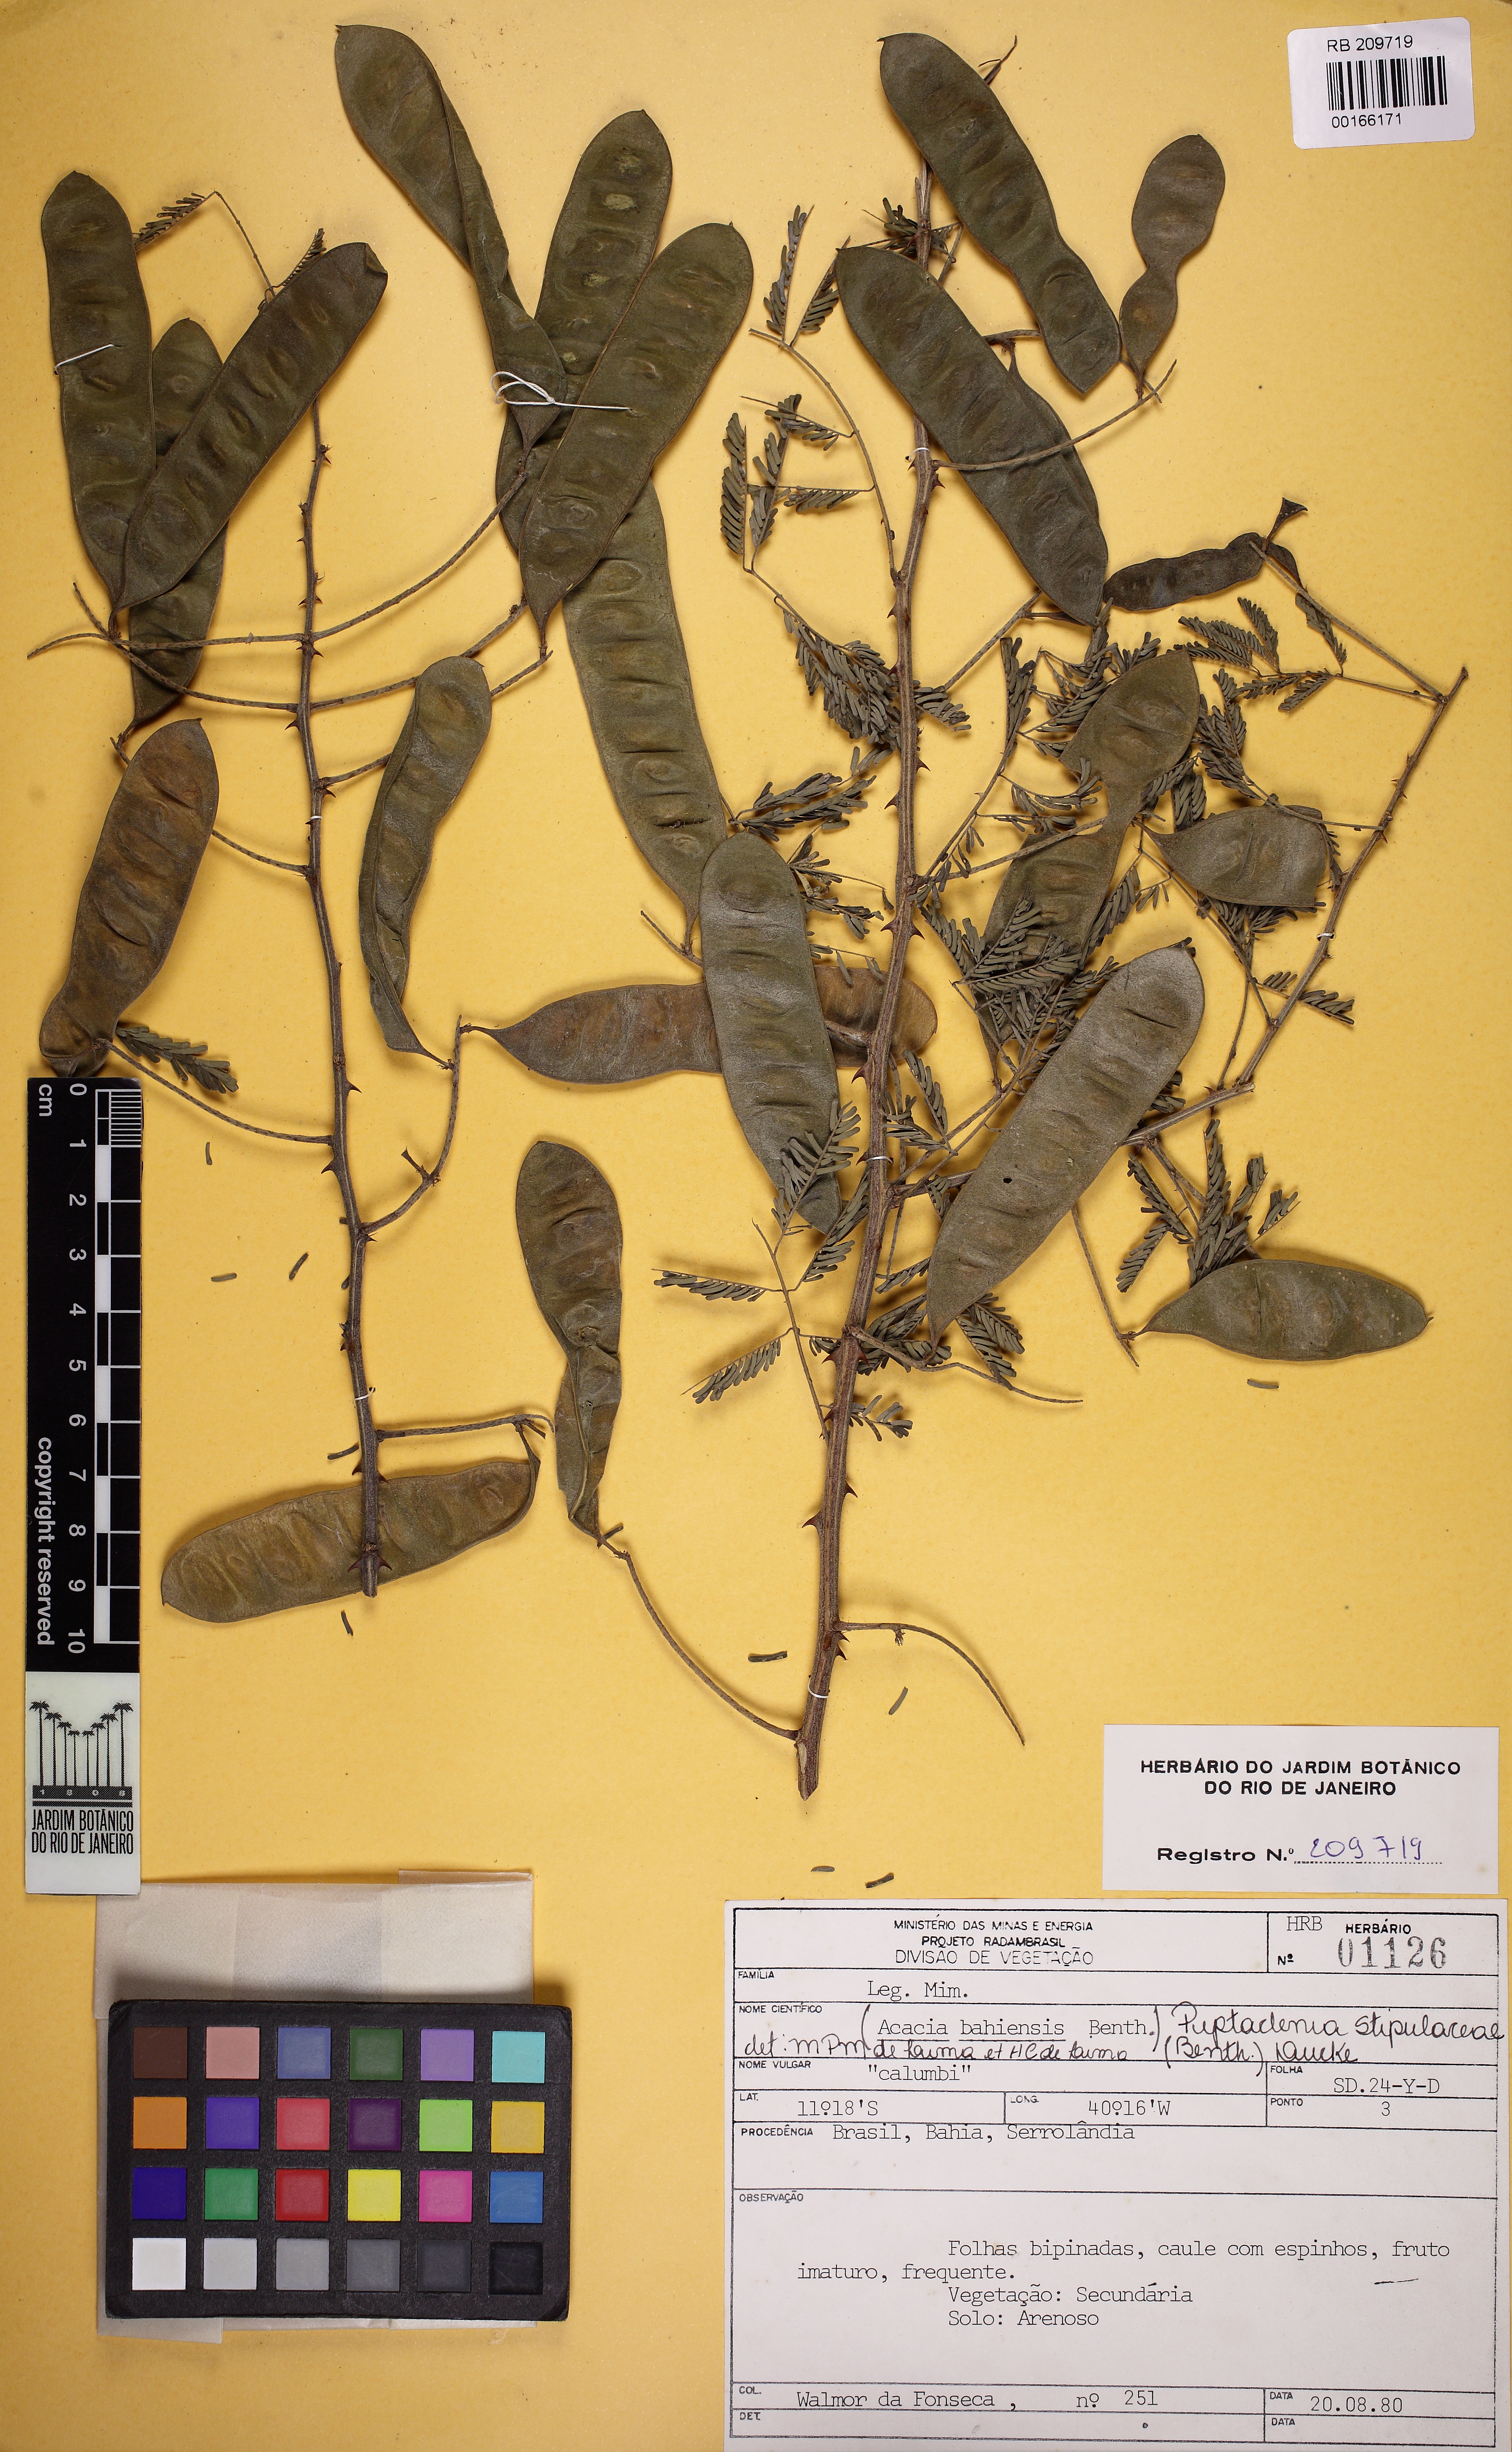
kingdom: Plantae
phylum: Tracheophyta
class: Magnoliopsida
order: Fabales
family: Fabaceae
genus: Piptadenia
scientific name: Piptadenia retusa
